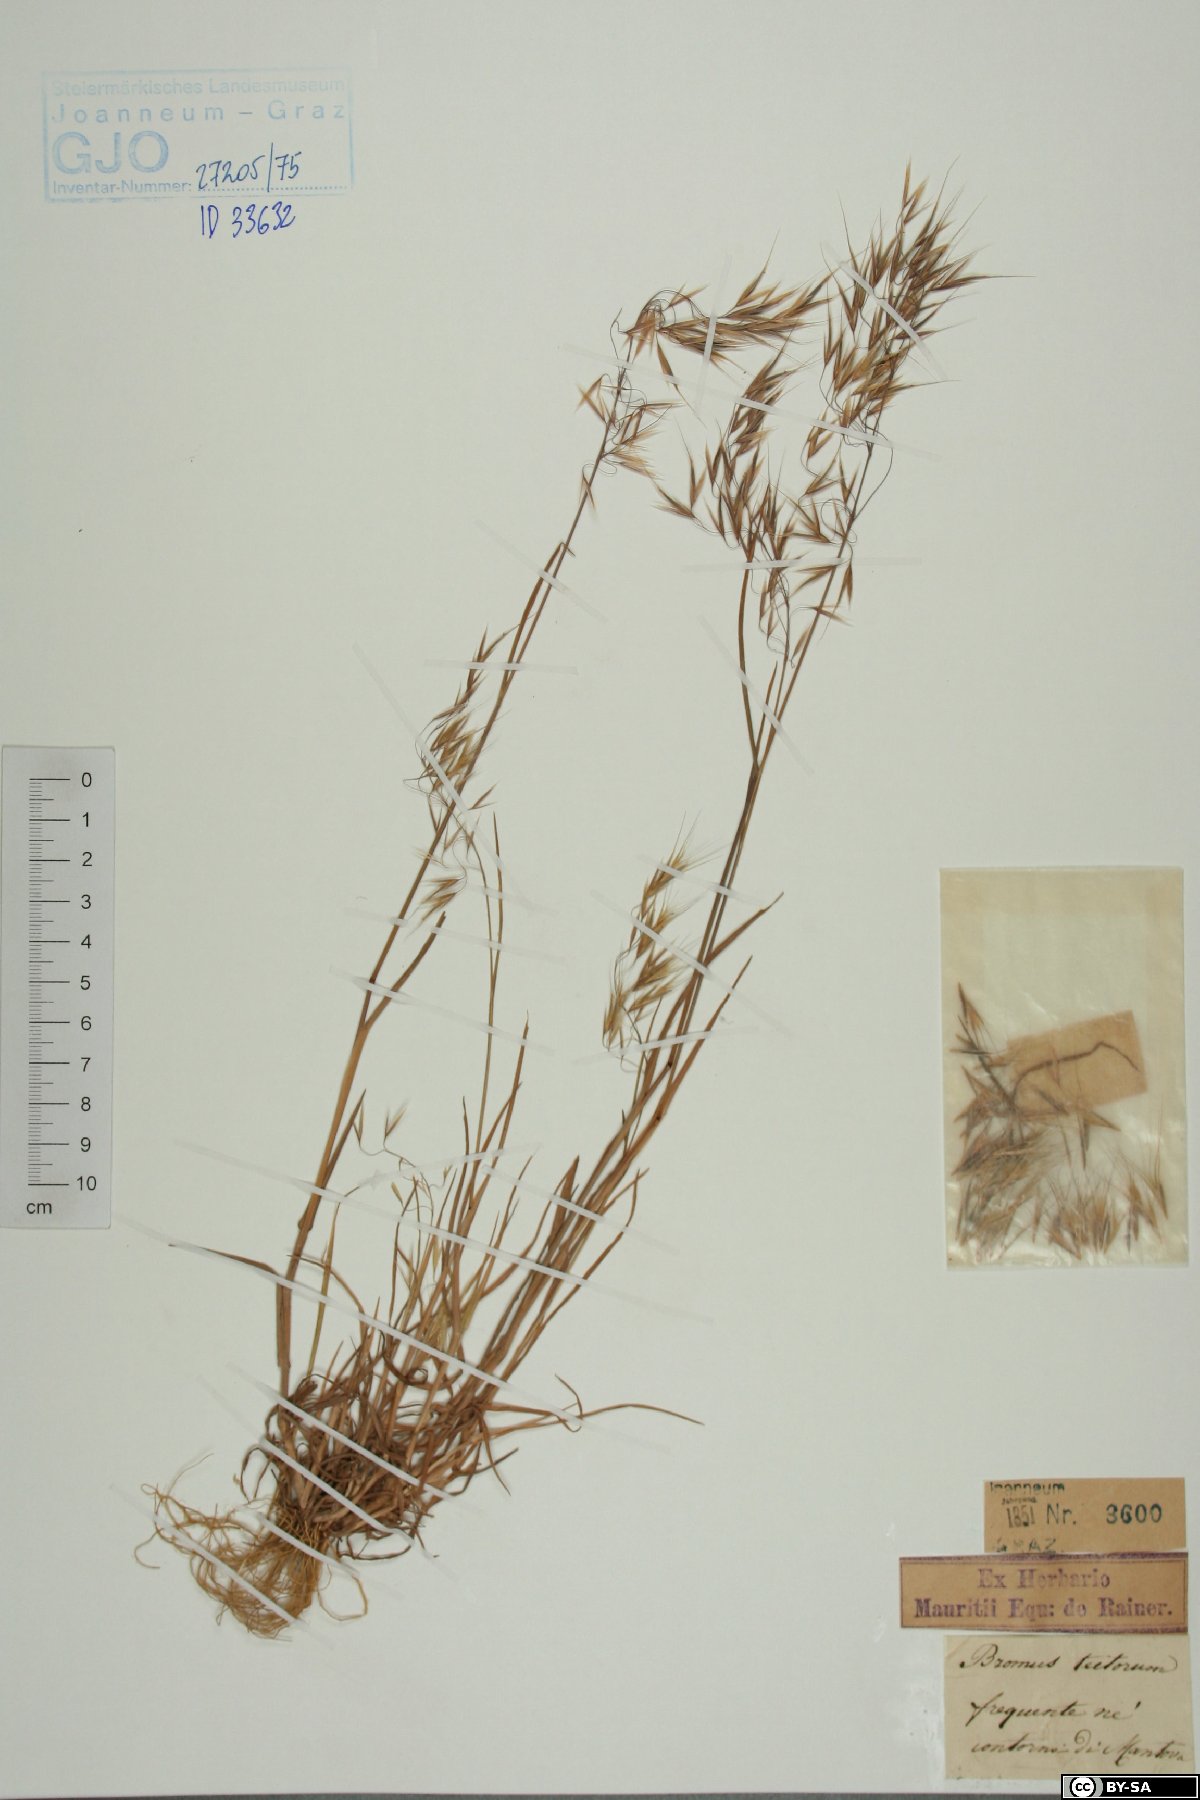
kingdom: Plantae
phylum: Tracheophyta
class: Liliopsida
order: Poales
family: Poaceae
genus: Bromus
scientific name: Bromus tectorum
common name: Cheatgrass
